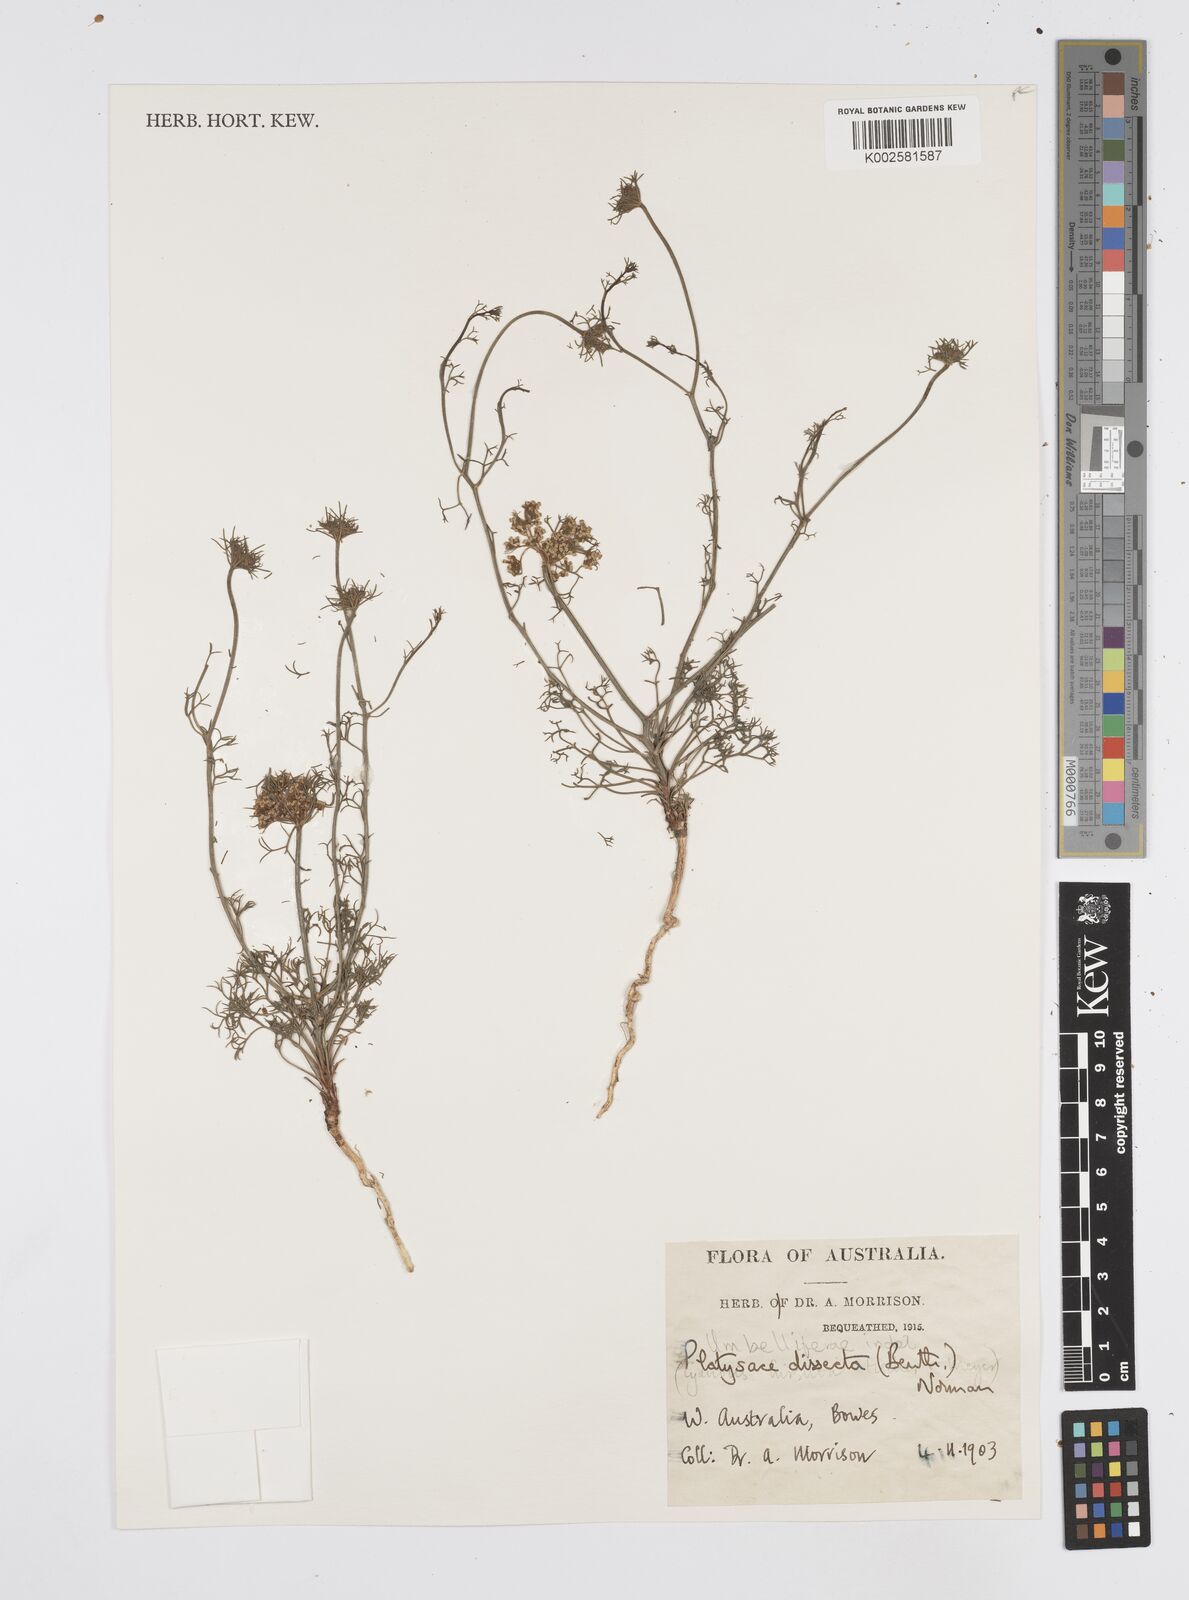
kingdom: Plantae
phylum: Tracheophyta
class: Magnoliopsida
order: Apiales
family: Apiaceae
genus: Platysace
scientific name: Platysace juncea
